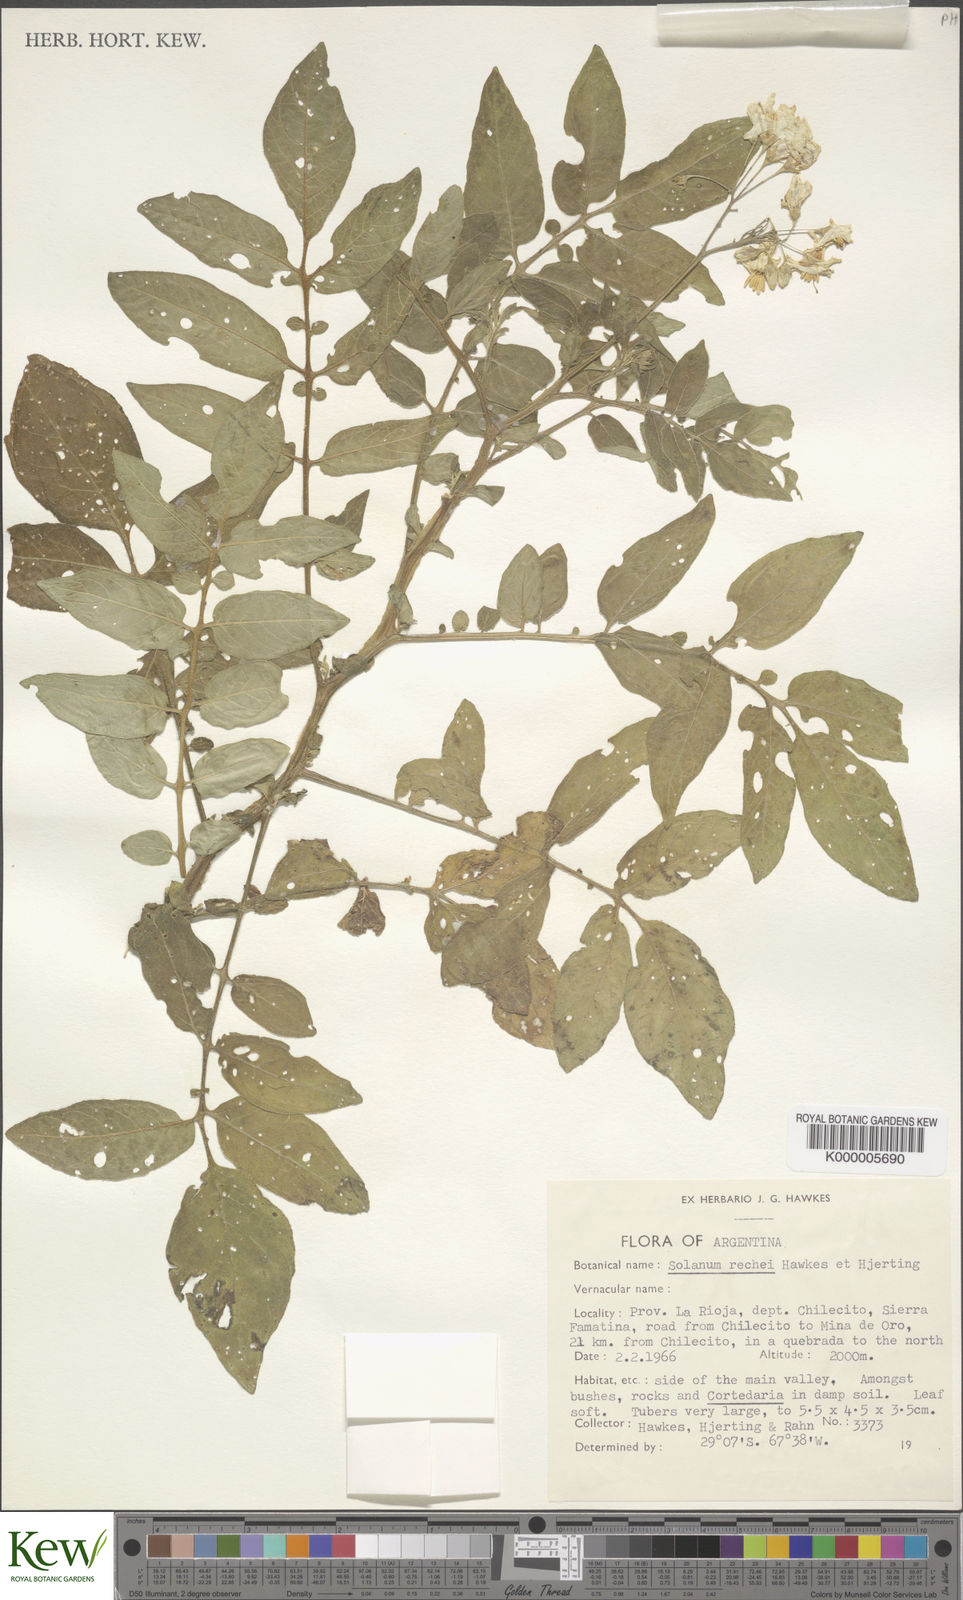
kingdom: Plantae
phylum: Tracheophyta
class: Magnoliopsida
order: Solanales
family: Solanaceae
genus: Solanum
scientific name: Solanum rechei
